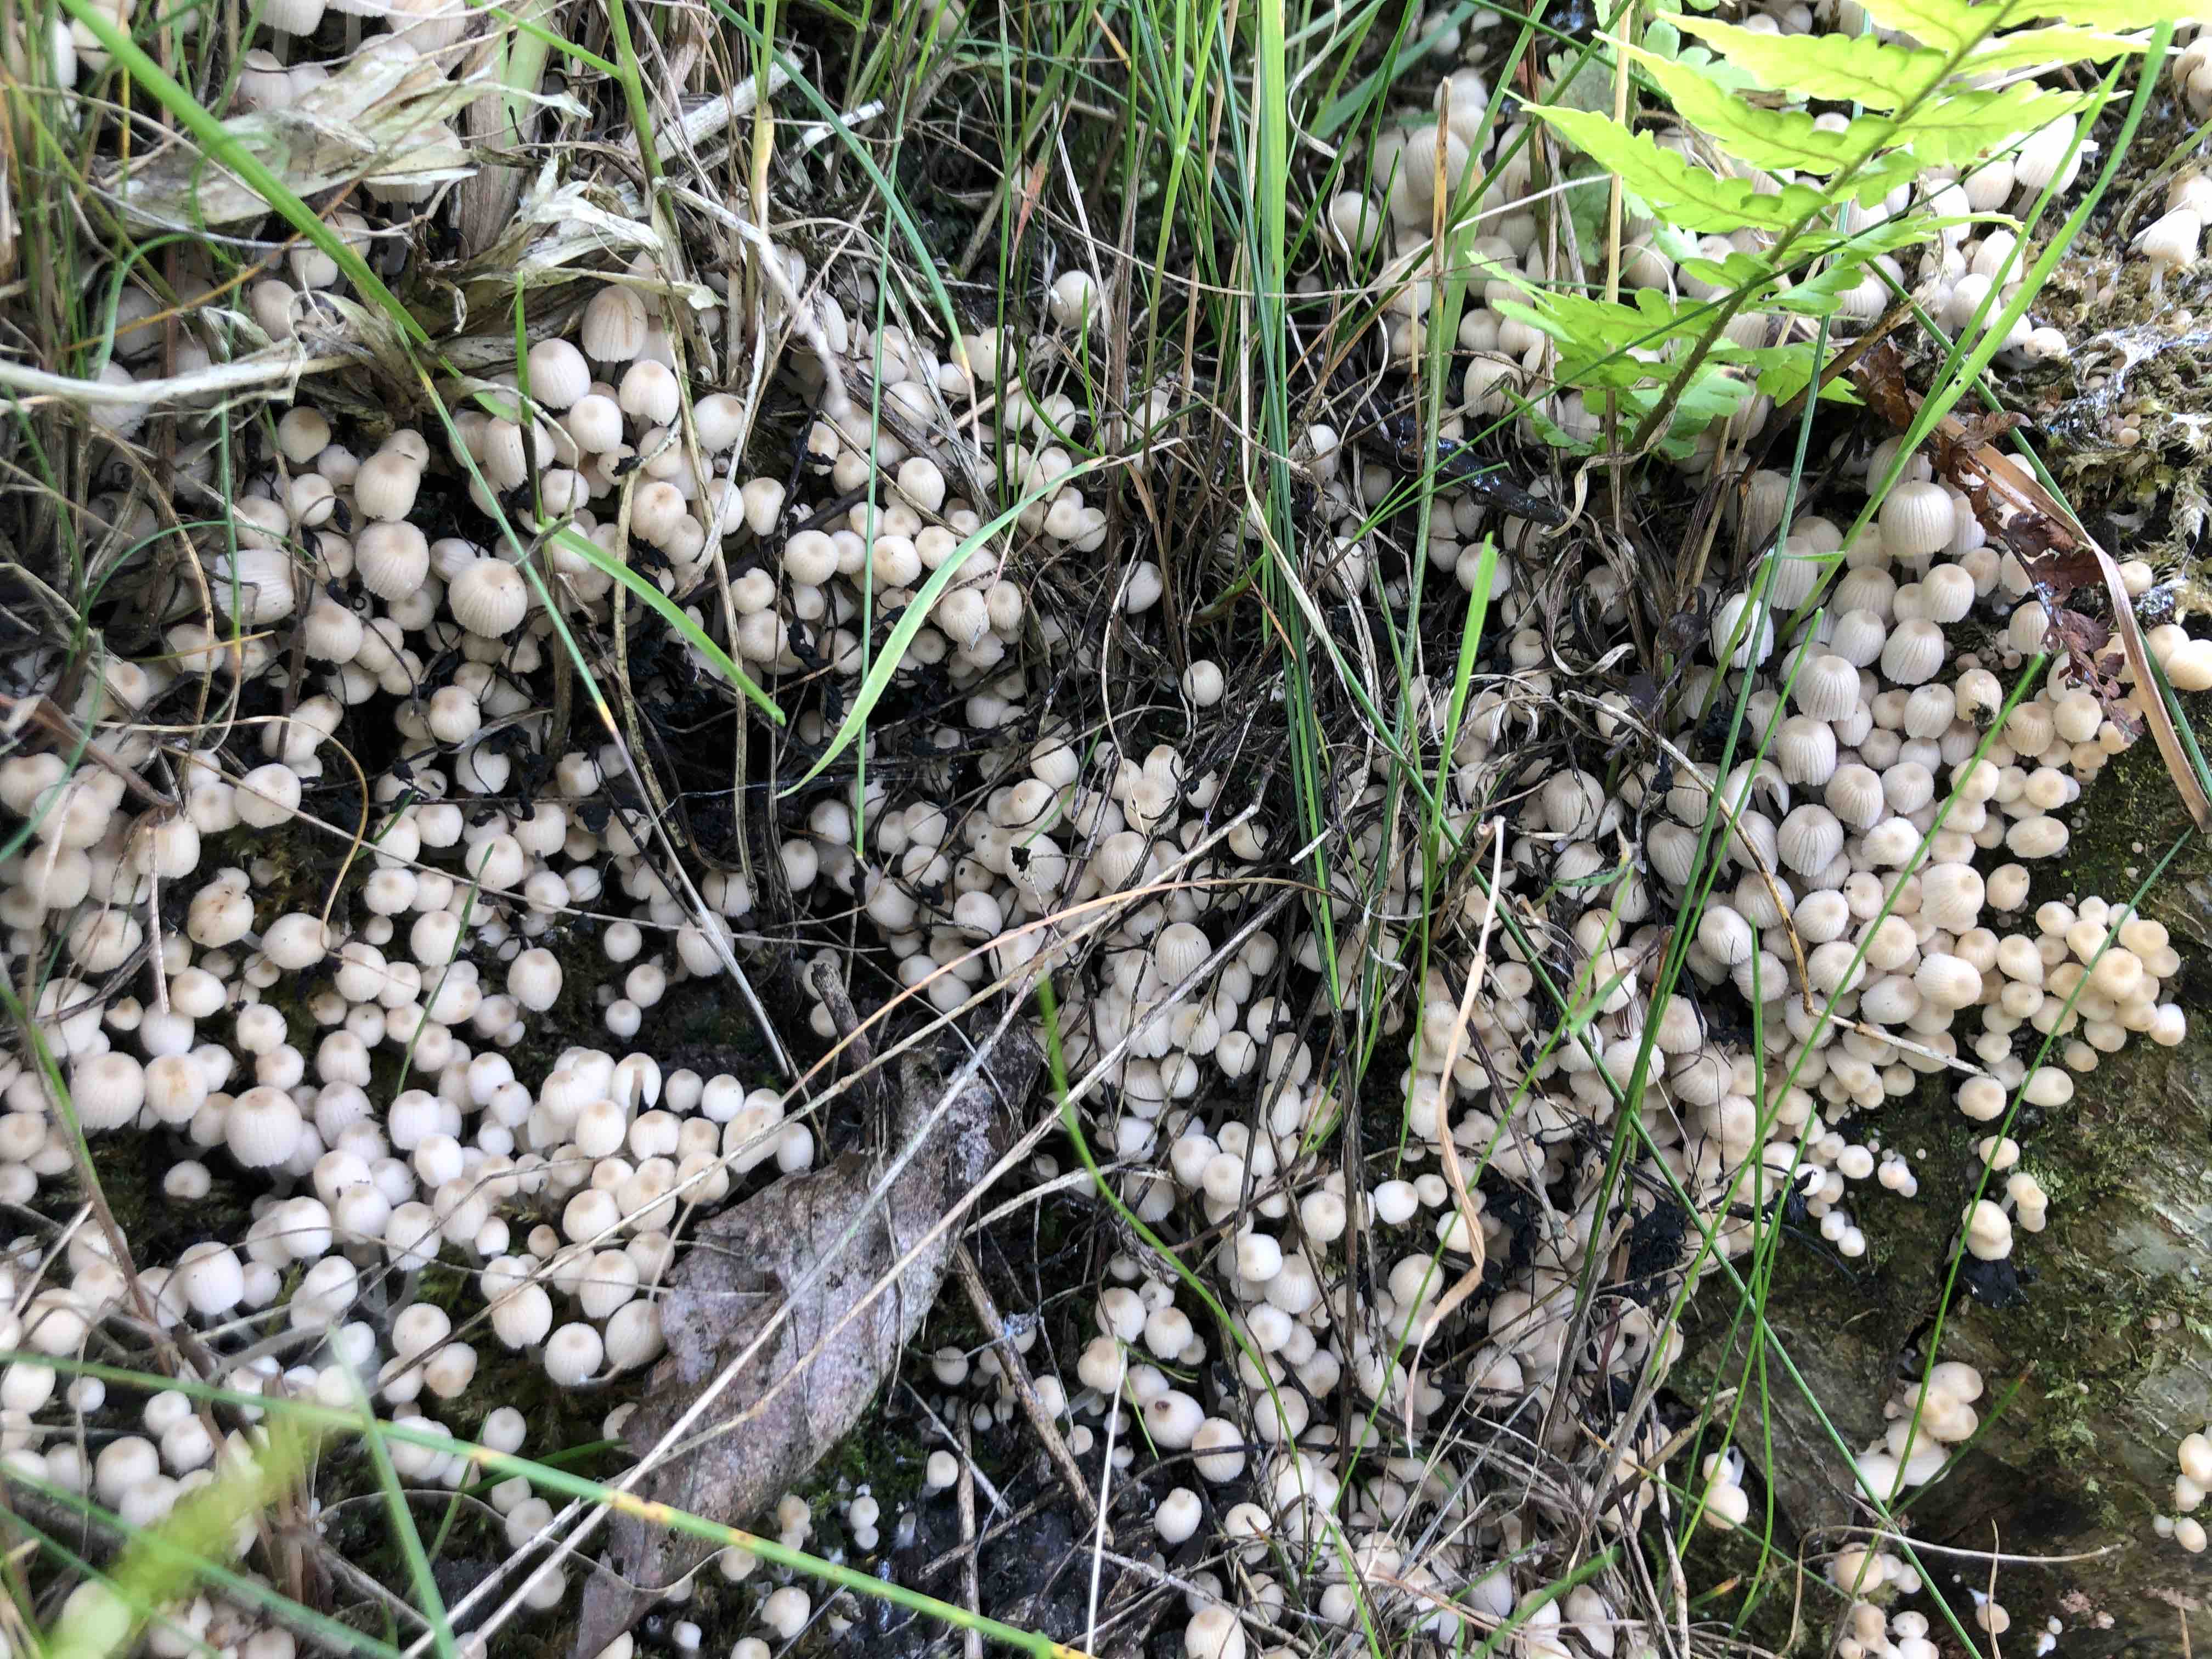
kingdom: Fungi
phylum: Basidiomycota
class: Agaricomycetes
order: Agaricales
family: Psathyrellaceae
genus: Coprinellus
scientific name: Coprinellus disseminatus
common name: bredsået blækhat
